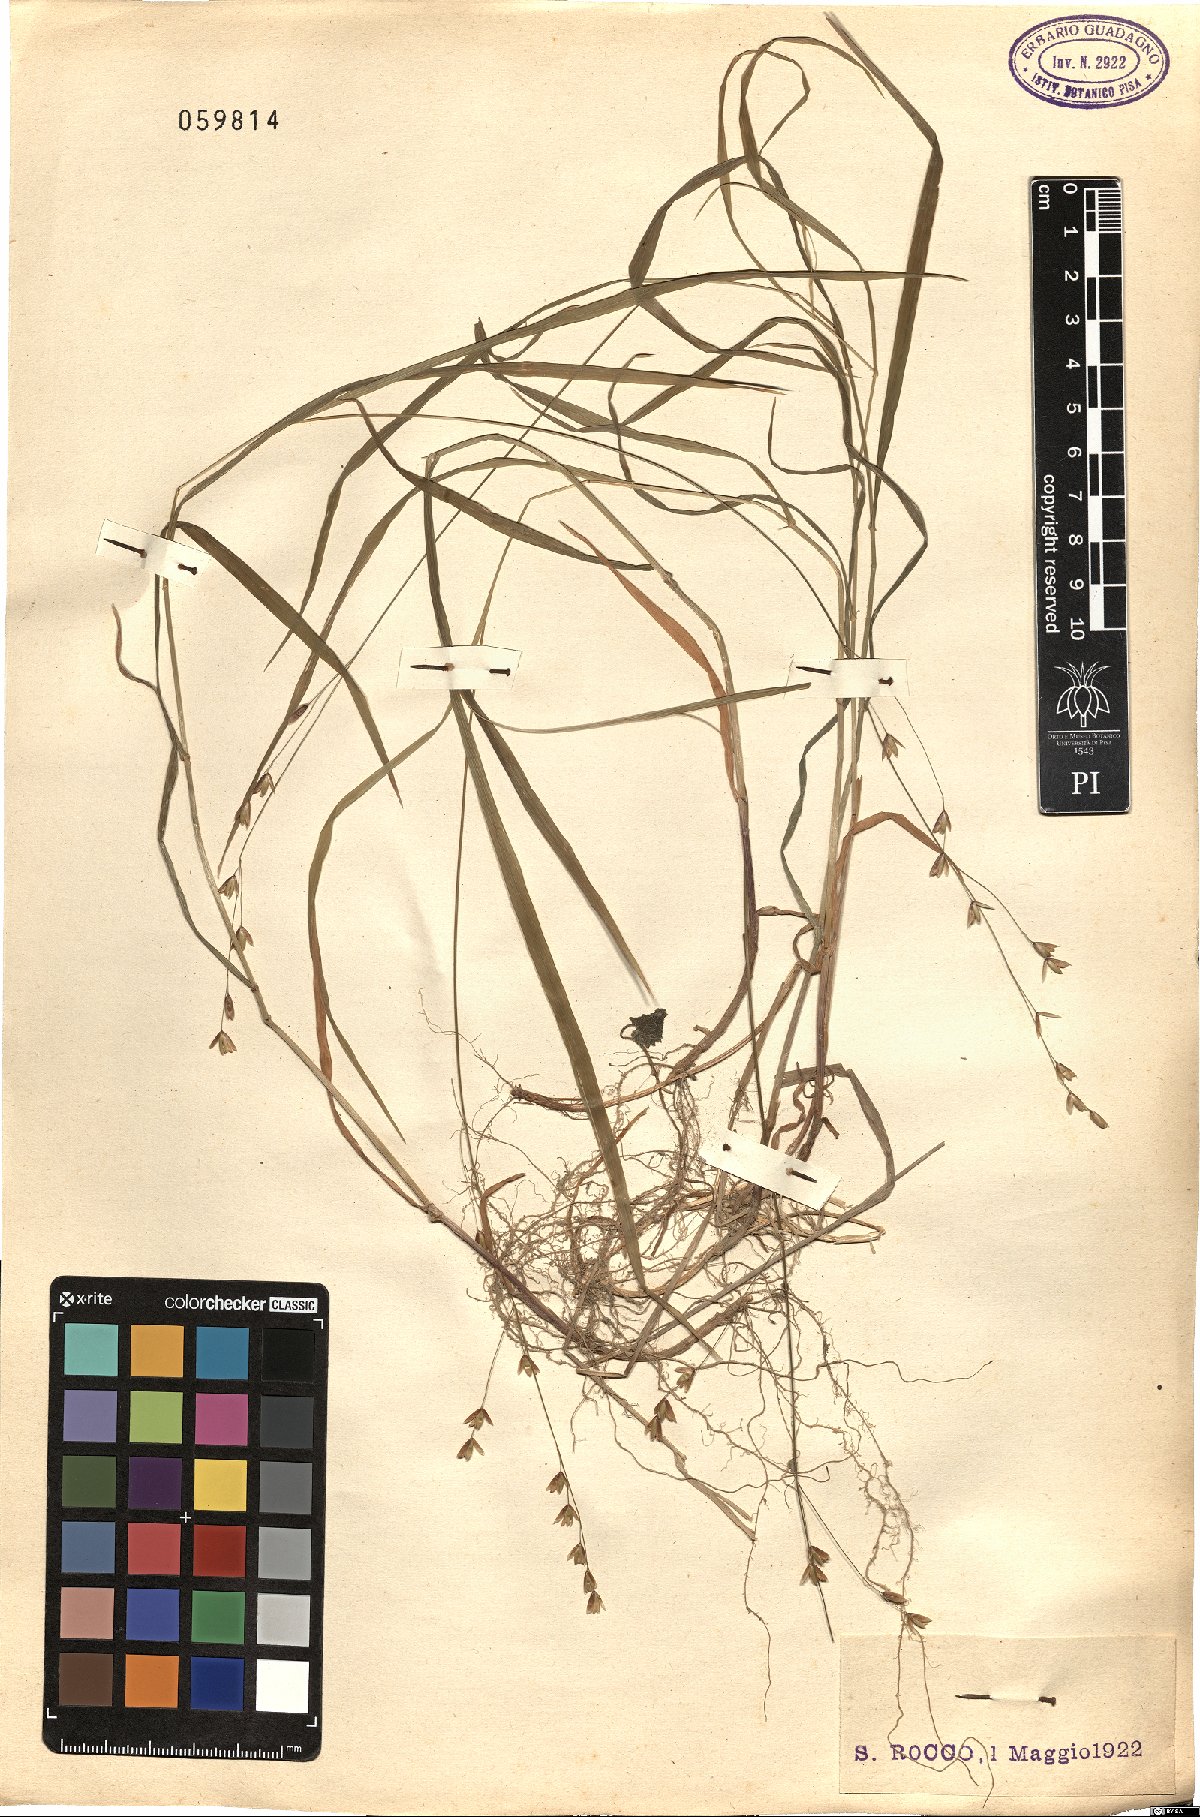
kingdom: Plantae
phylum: Tracheophyta
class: Liliopsida
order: Poales
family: Poaceae
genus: Melica
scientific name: Melica uniflora
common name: Wood melick
